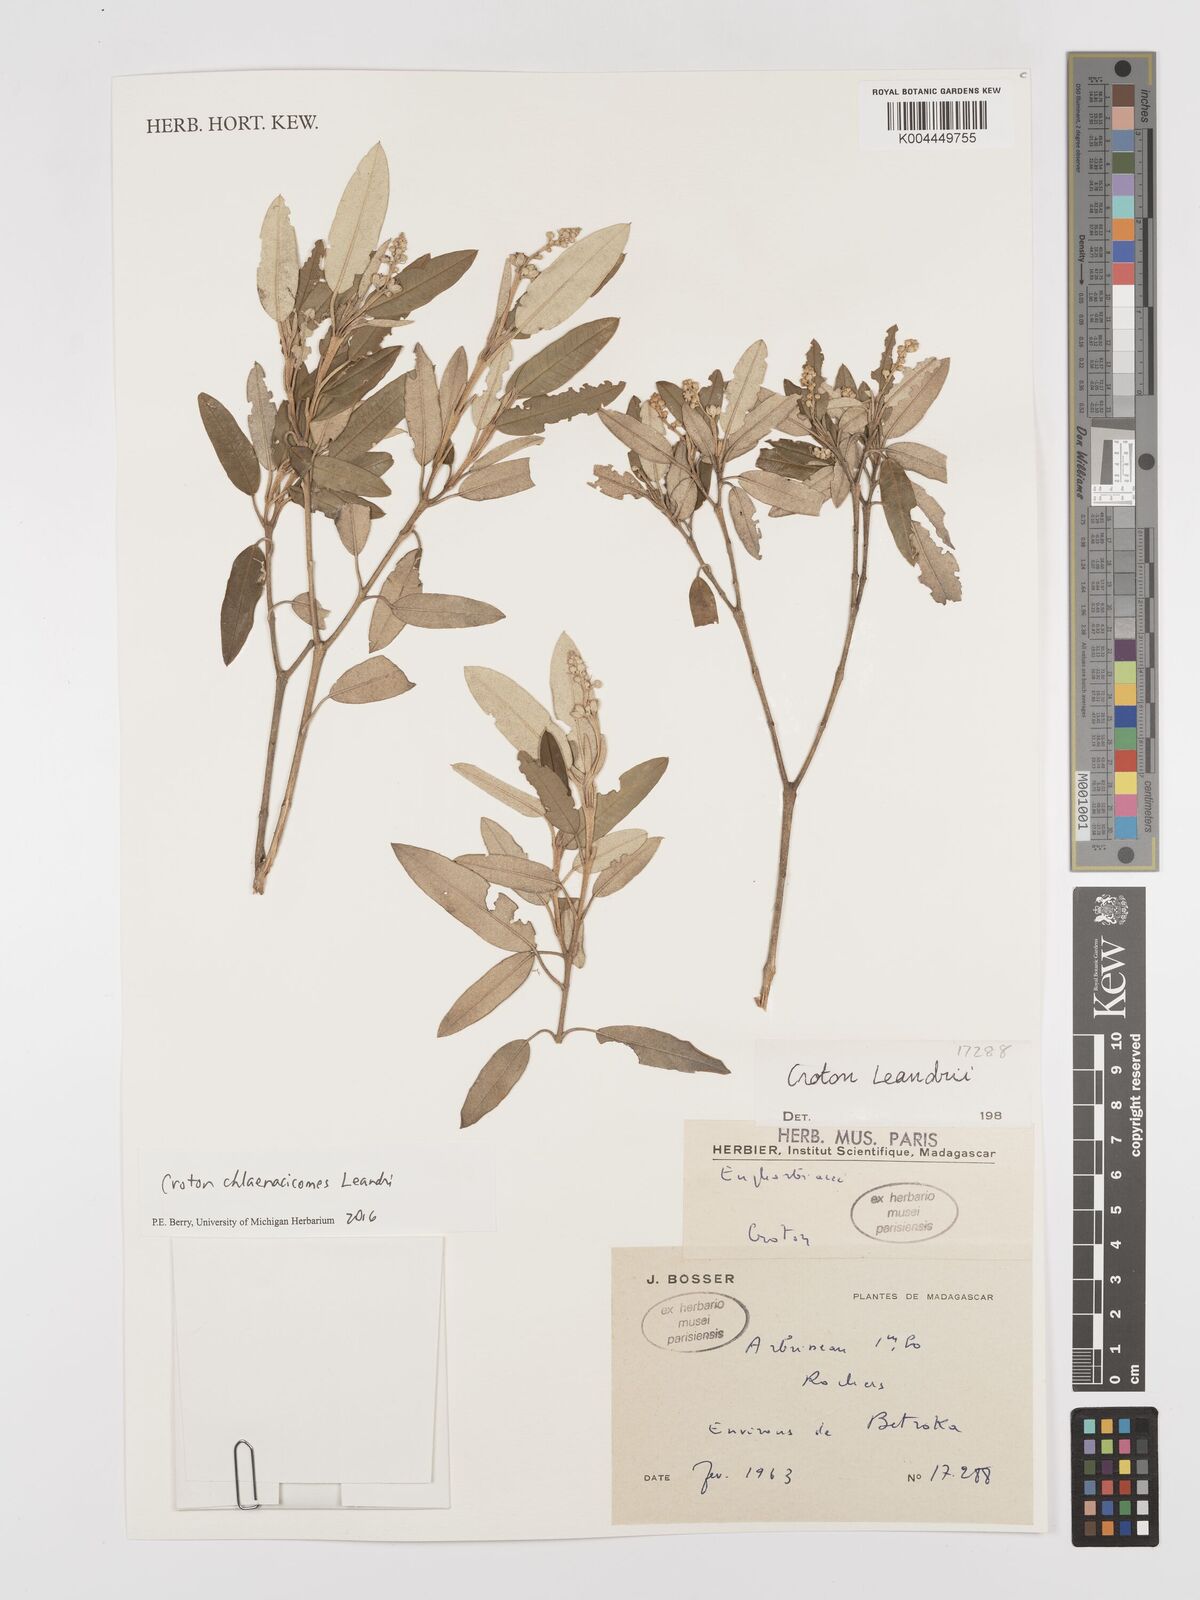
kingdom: Plantae
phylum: Tracheophyta
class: Magnoliopsida
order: Malpighiales
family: Euphorbiaceae
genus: Croton
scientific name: Croton chlaenacicomes
